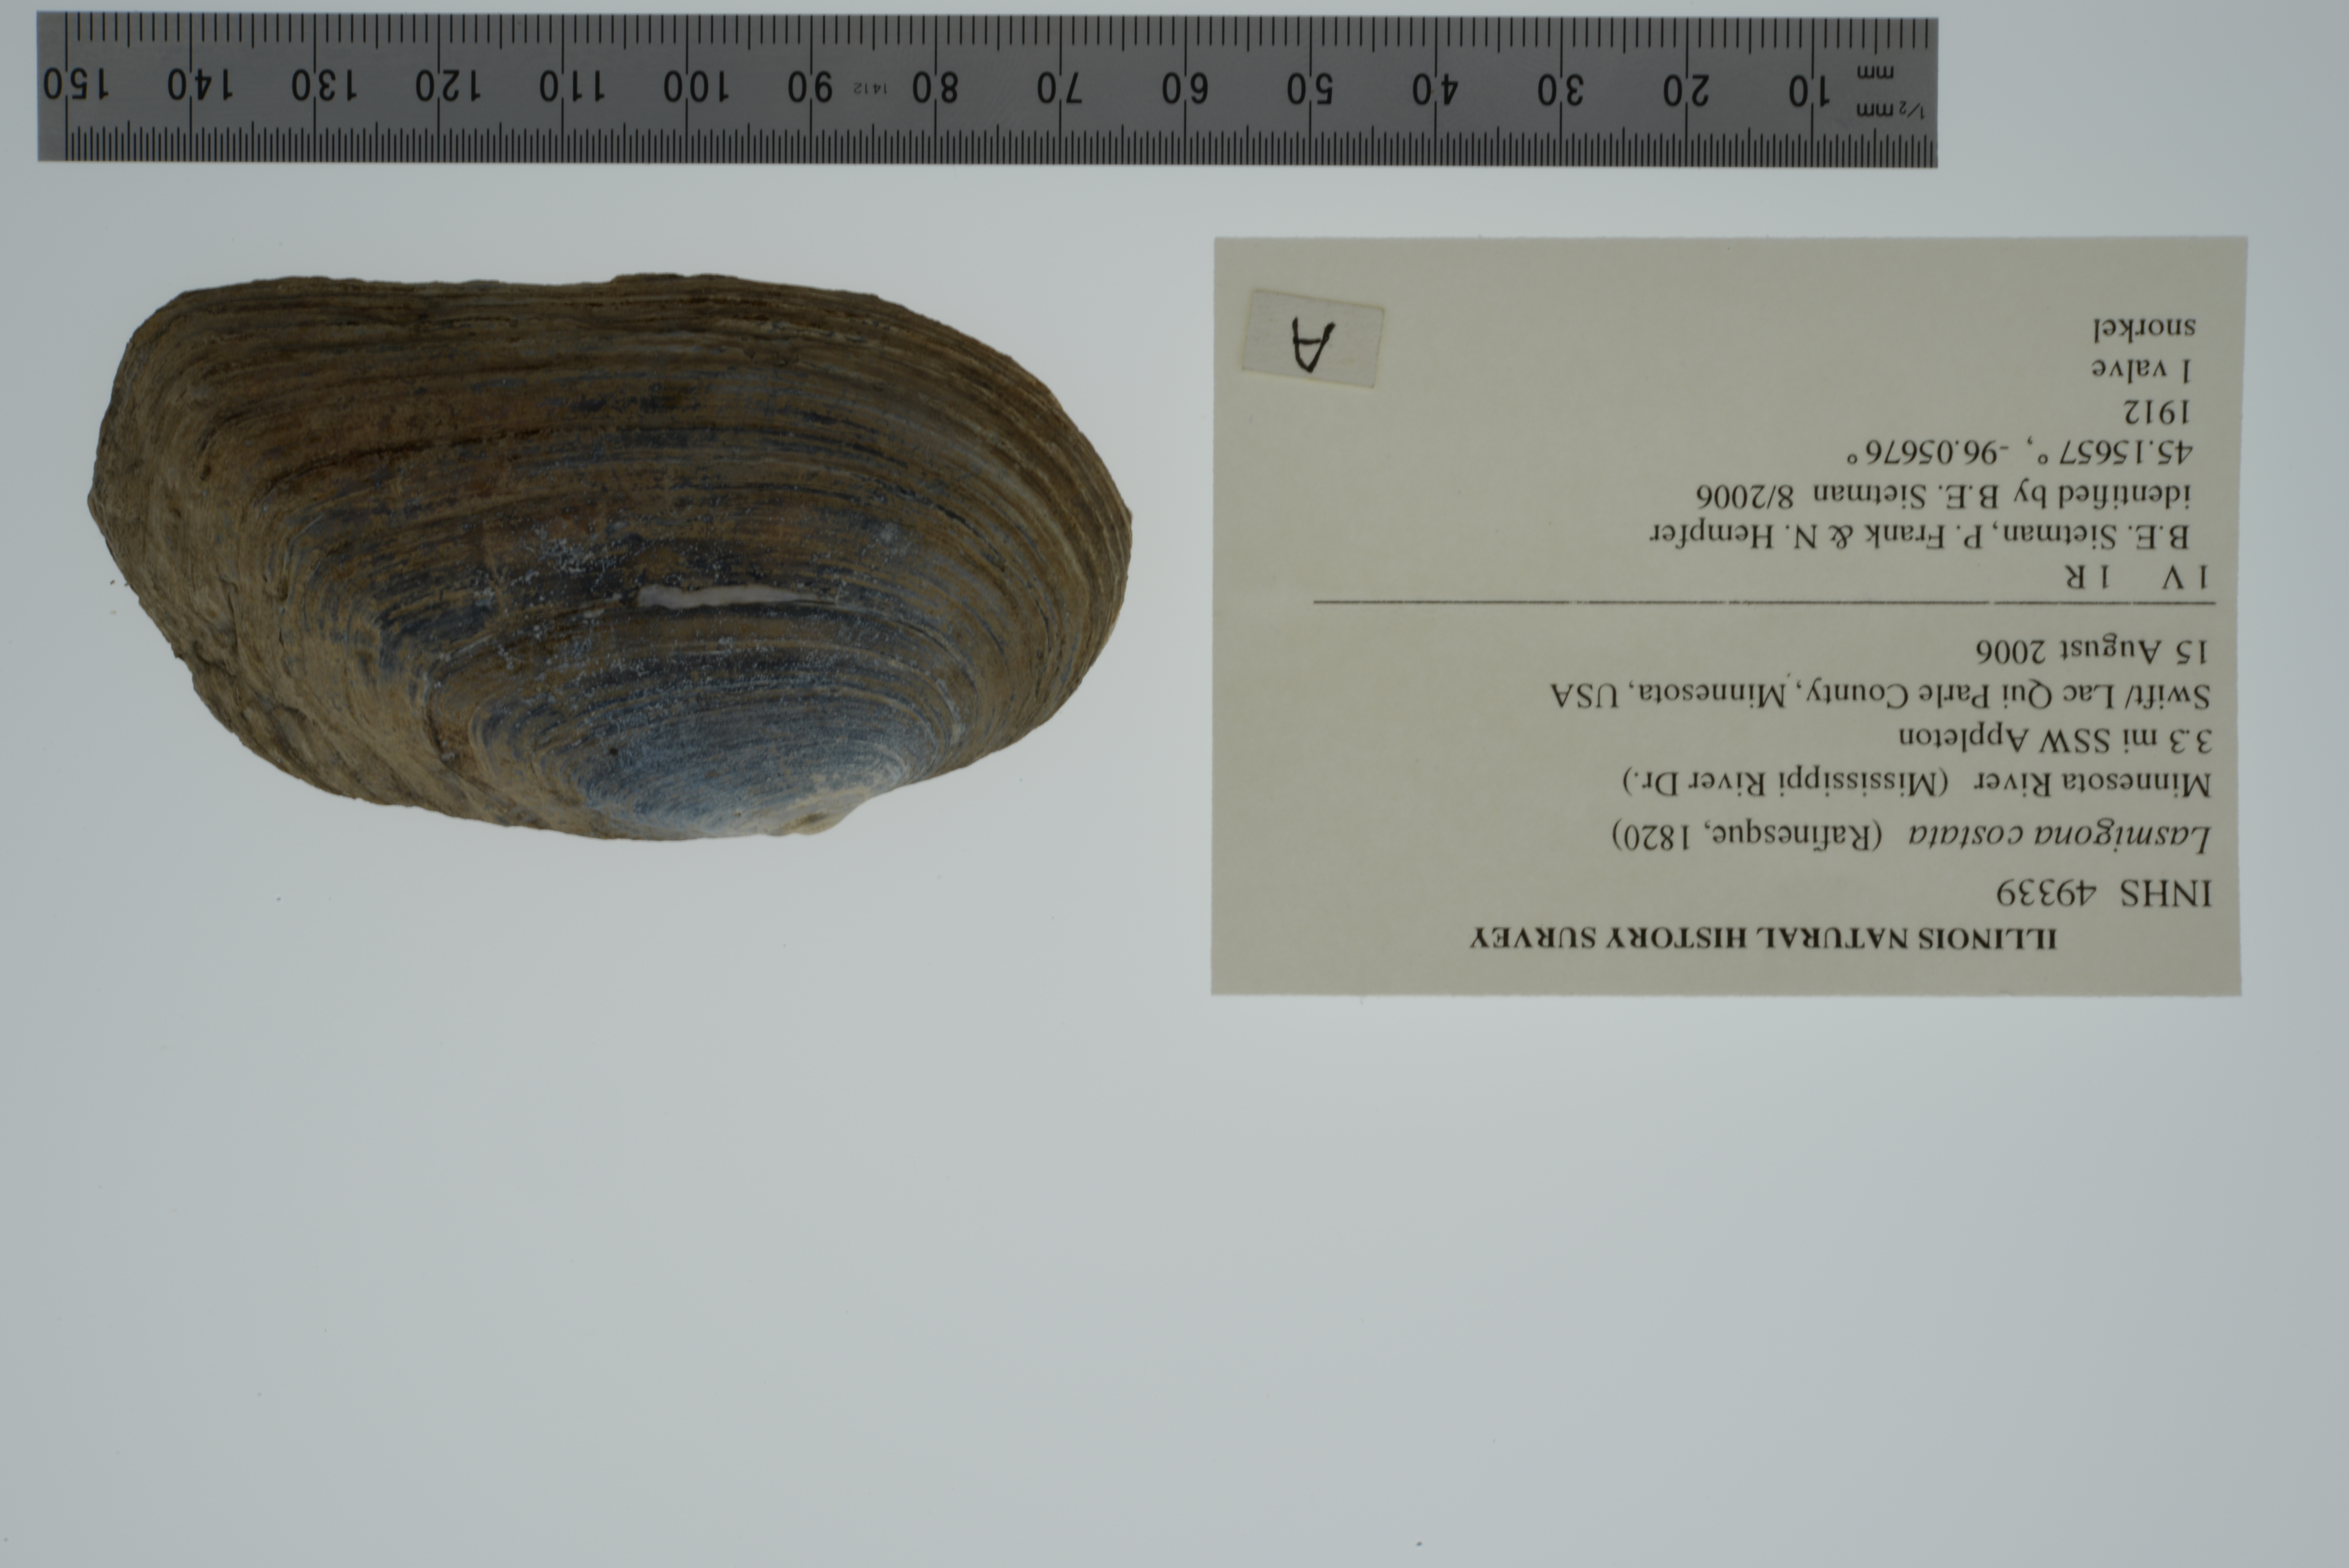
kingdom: Animalia
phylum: Mollusca
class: Bivalvia
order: Unionida
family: Unionidae
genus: Lasmigona
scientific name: Lasmigona costata
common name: Flutedshell
